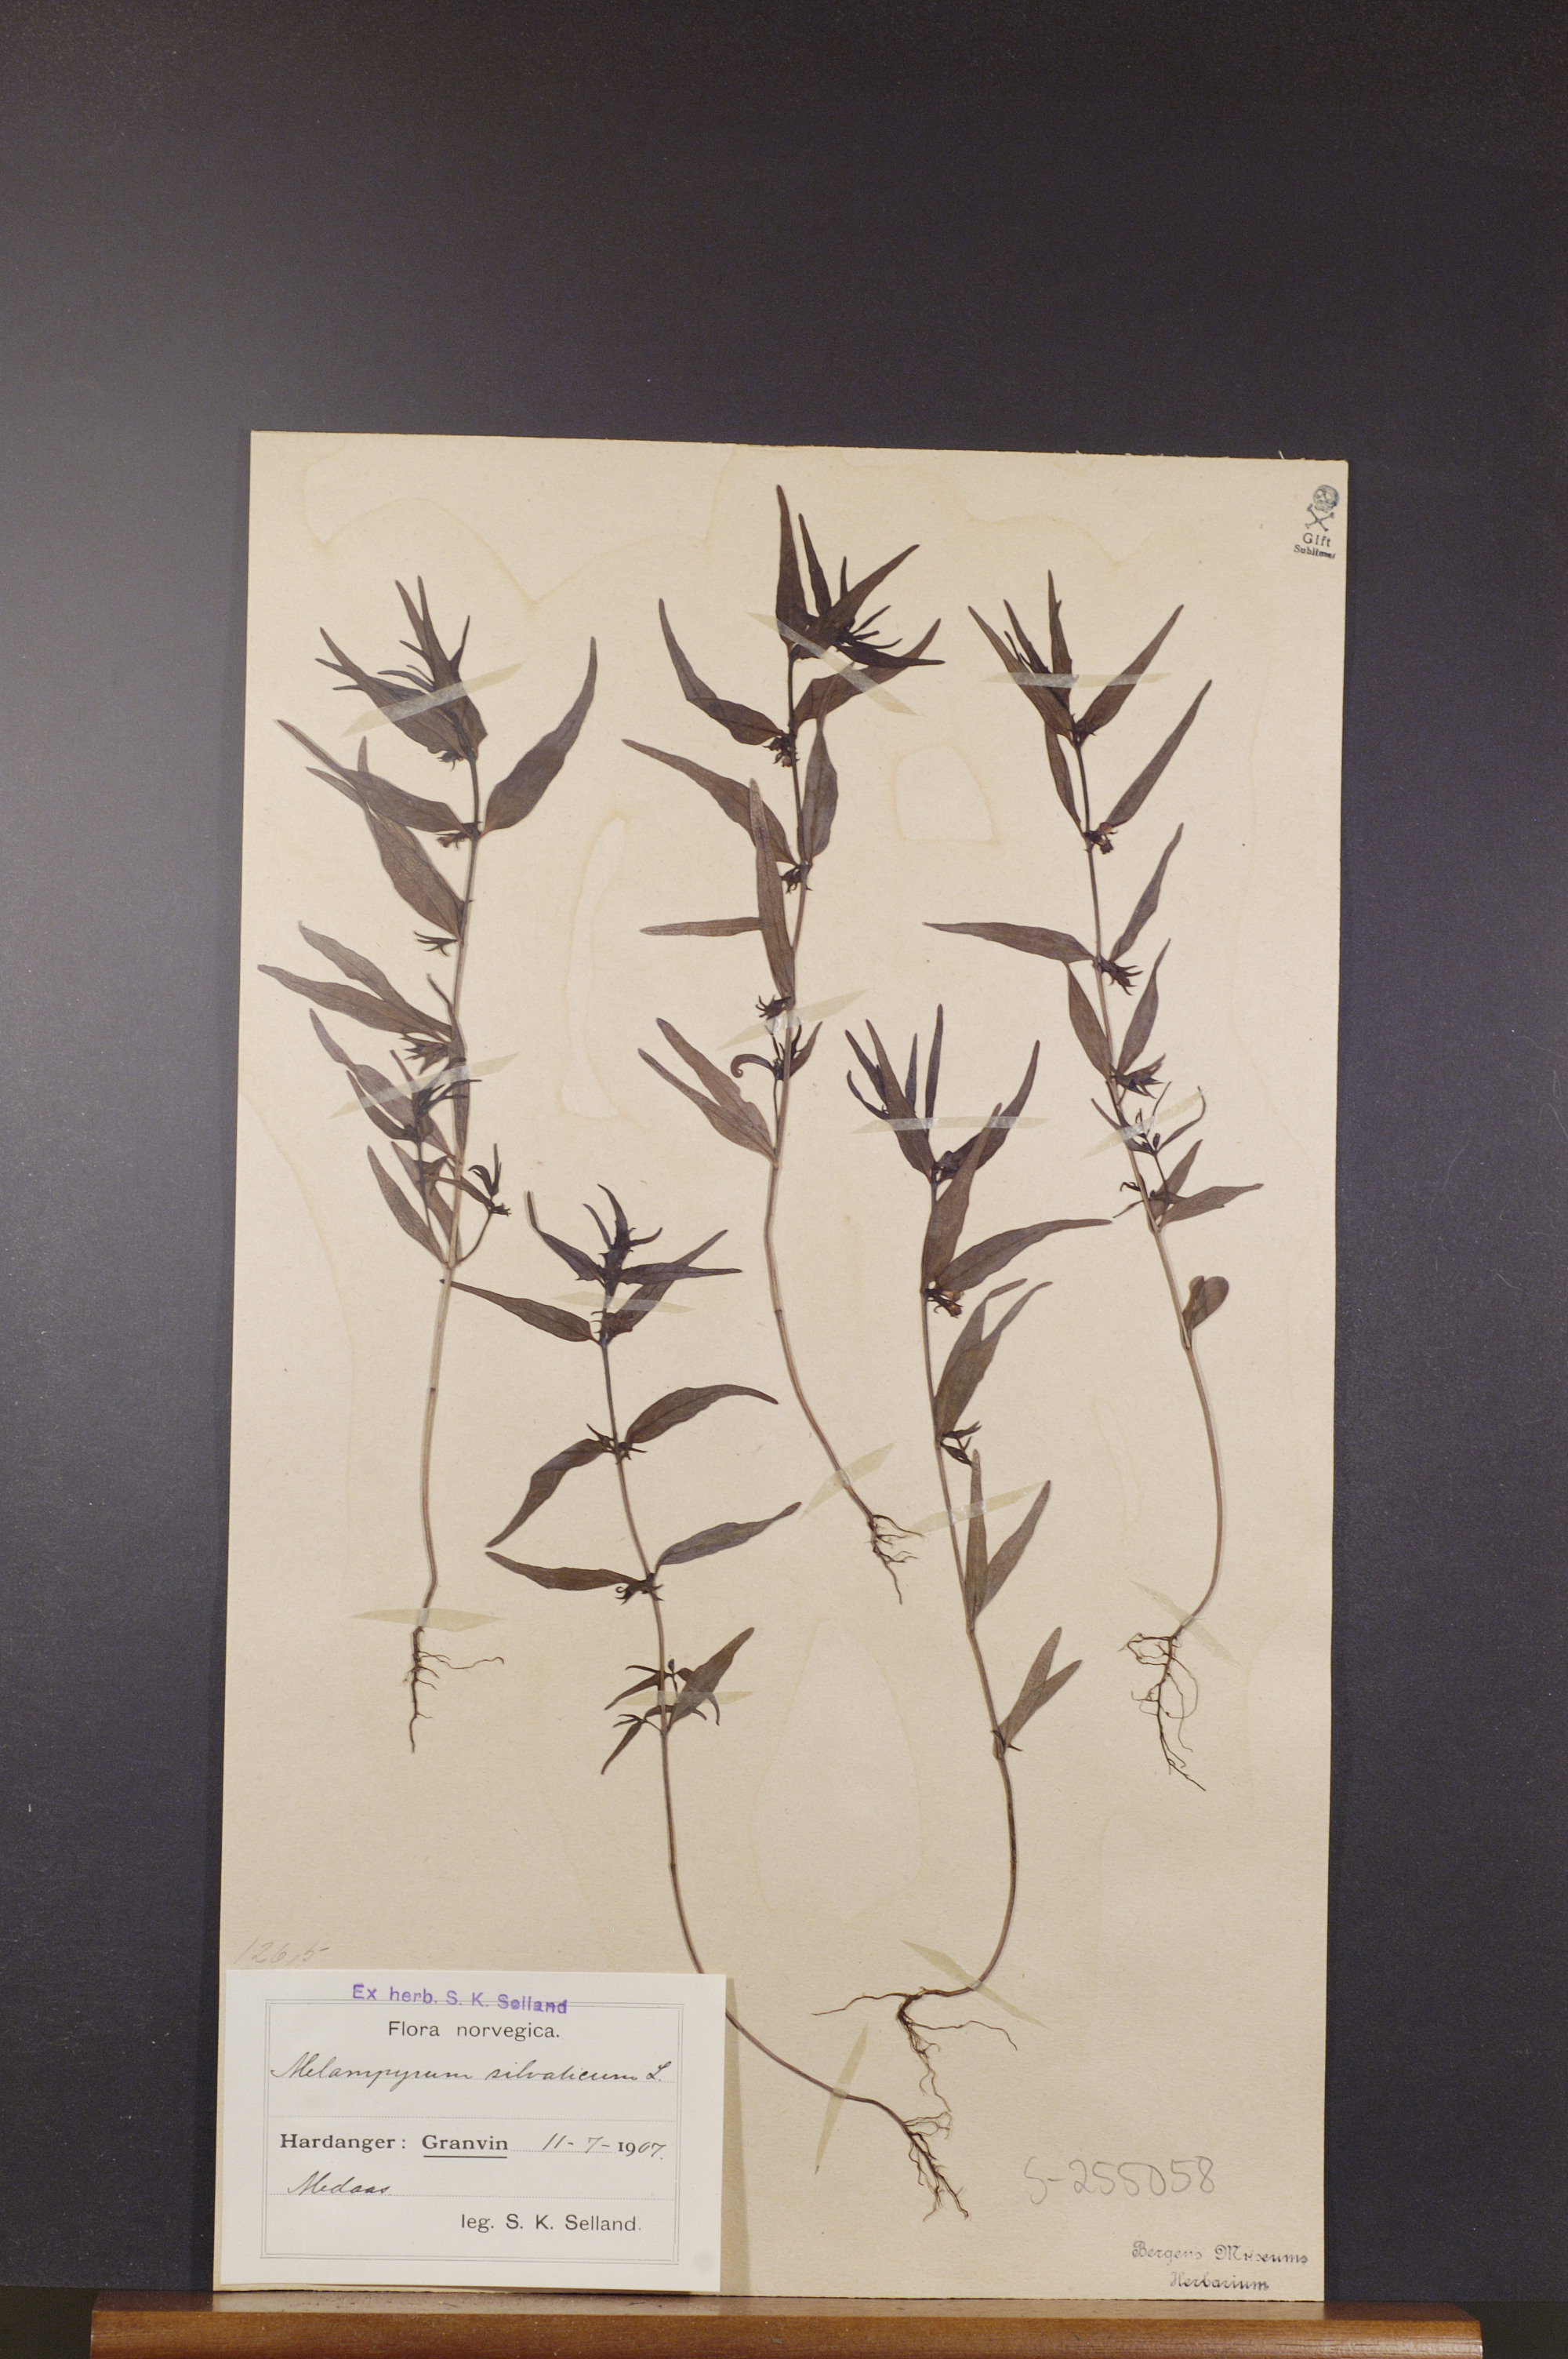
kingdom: Plantae
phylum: Tracheophyta
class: Magnoliopsida
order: Lamiales
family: Orobanchaceae
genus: Melampyrum
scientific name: Melampyrum sylvaticum
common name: Small cow-wheat
